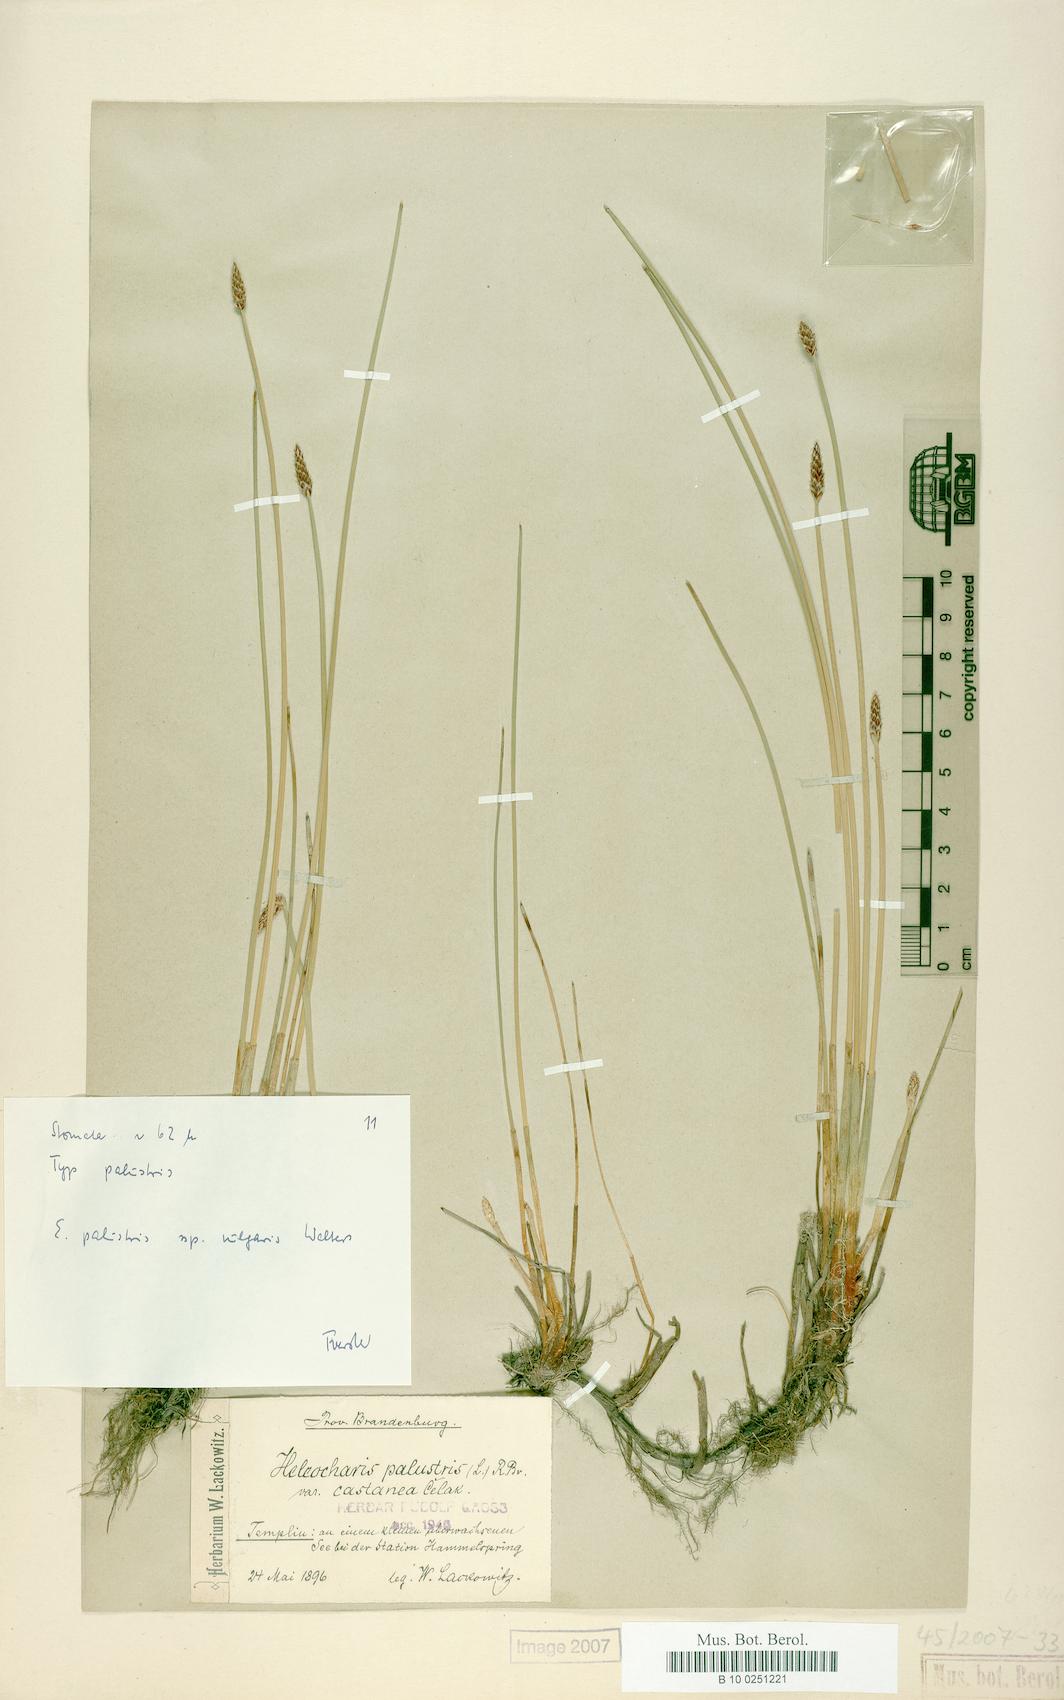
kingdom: Plantae
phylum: Tracheophyta
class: Liliopsida
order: Poales
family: Cyperaceae
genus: Eleocharis
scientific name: Eleocharis palustris
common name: Common spike-rush
